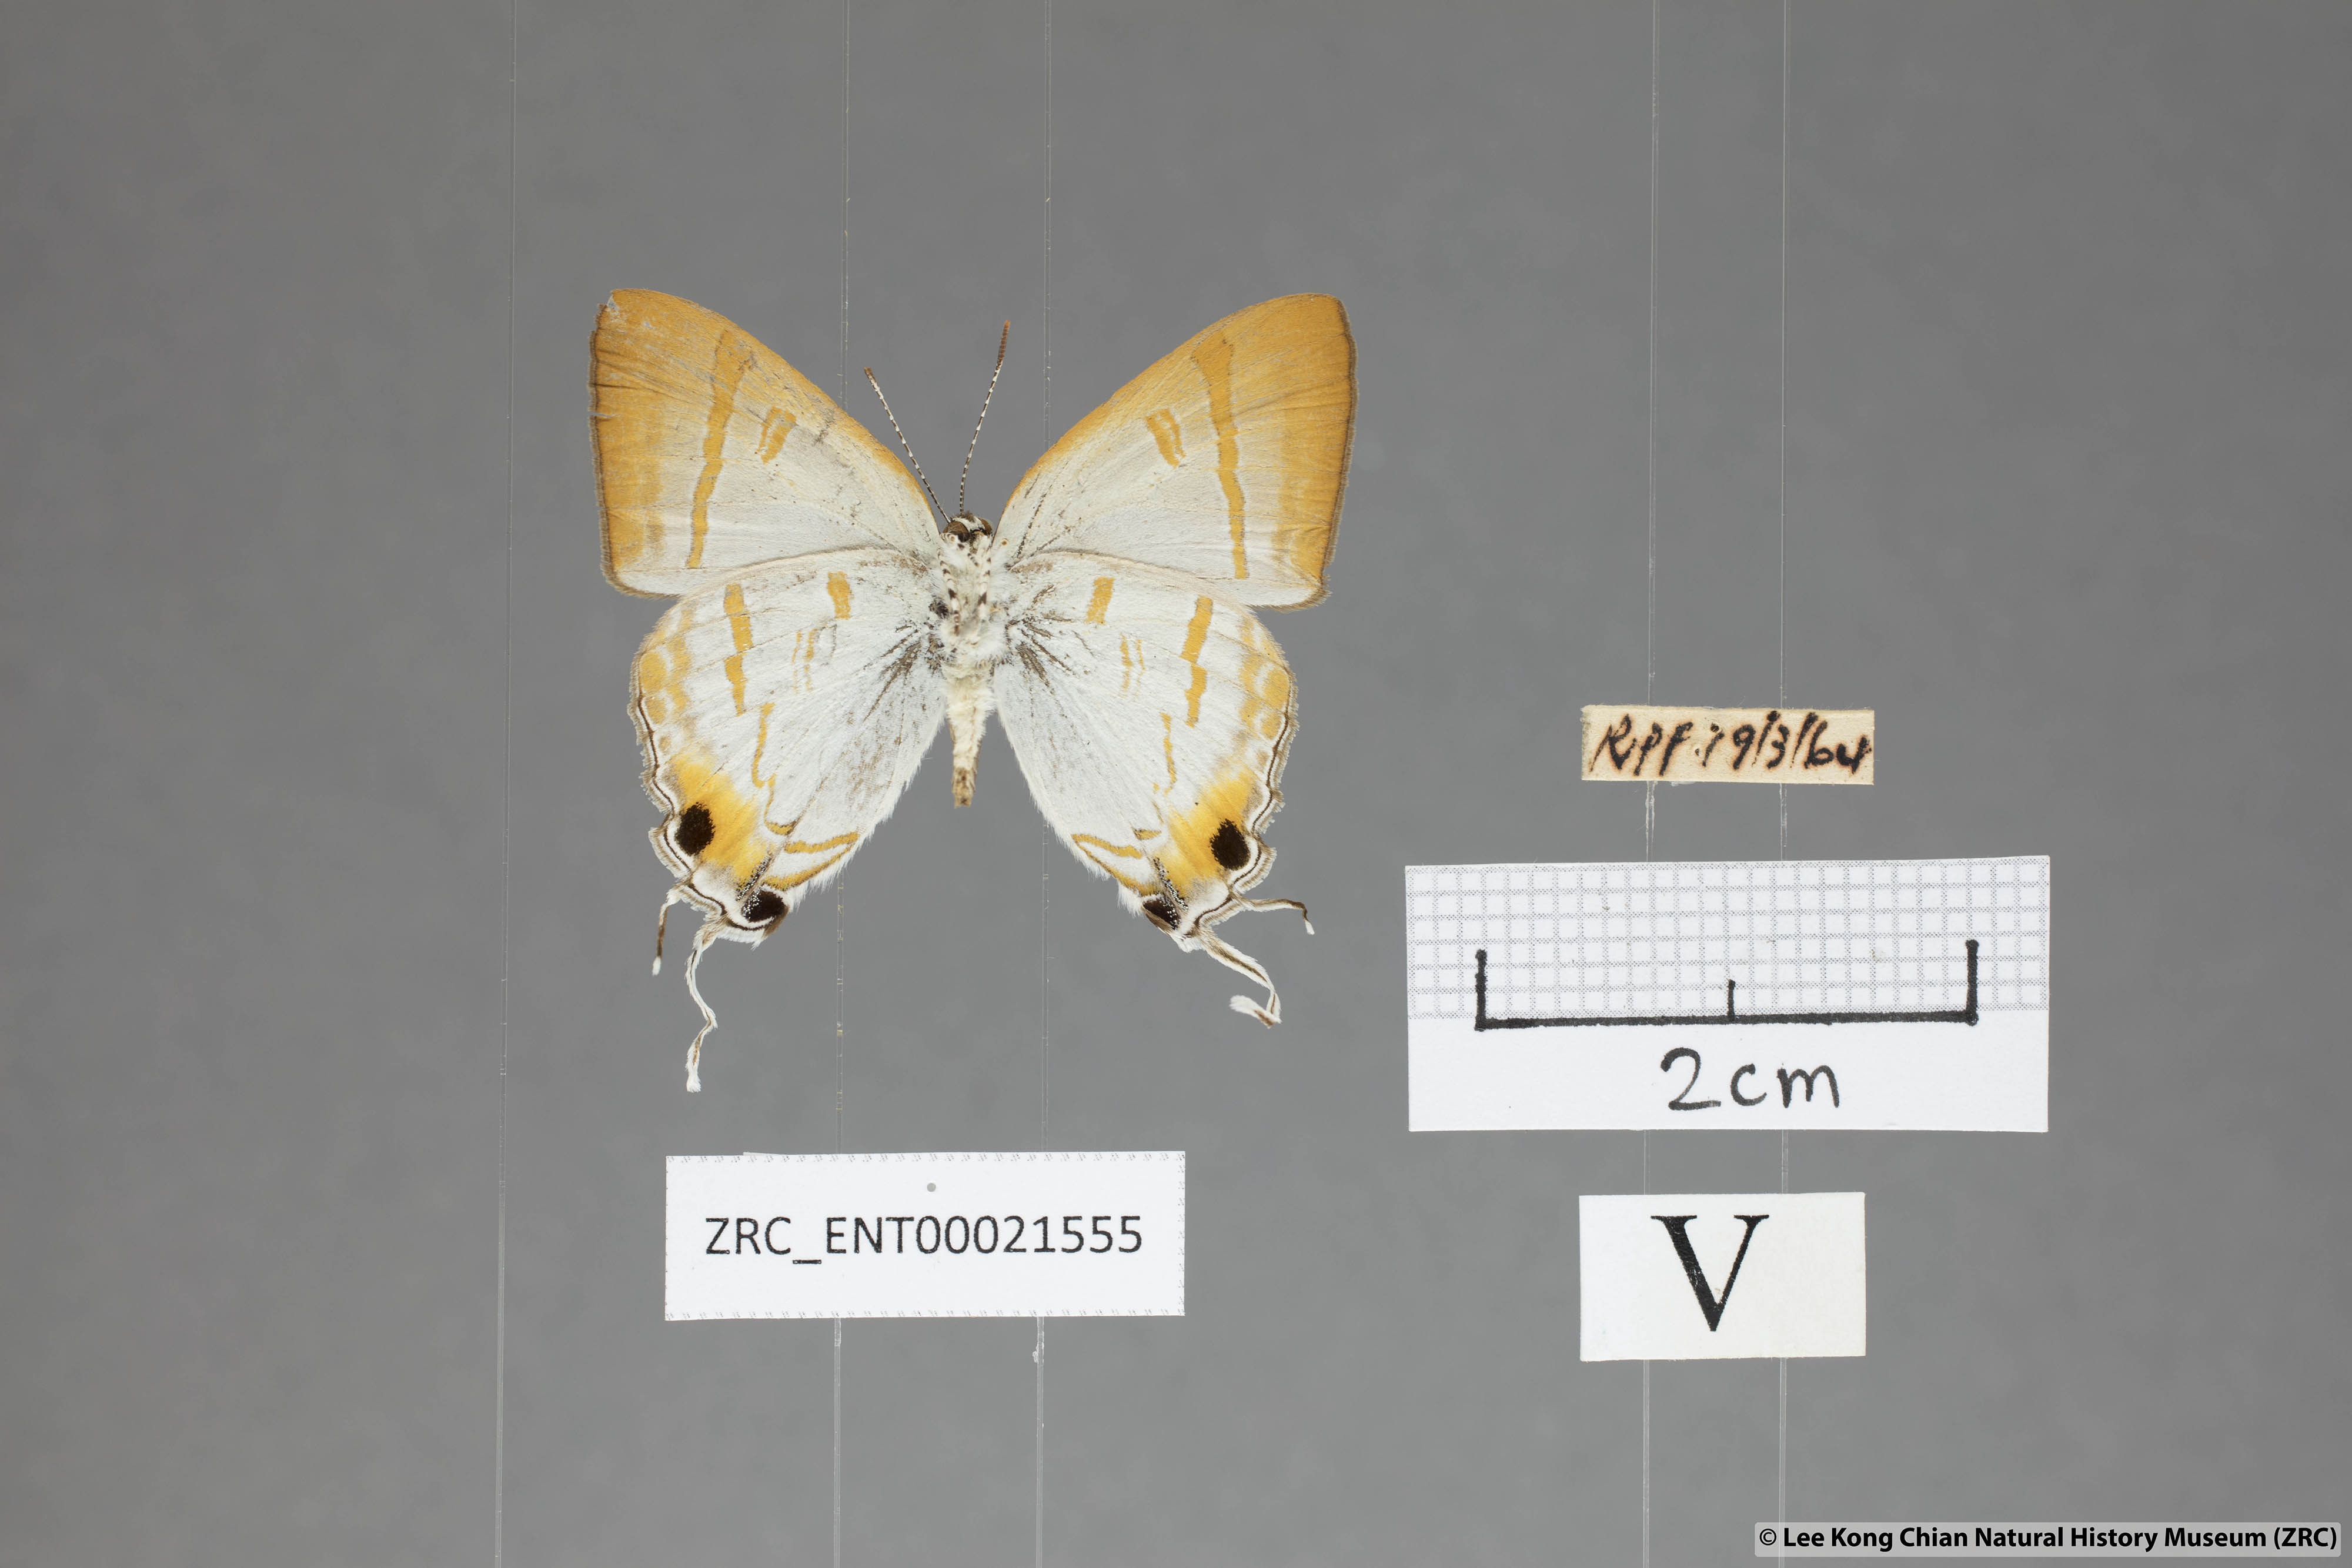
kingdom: Animalia
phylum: Arthropoda
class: Insecta
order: Lepidoptera
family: Lycaenidae
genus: Hypolycaena
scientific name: Hypolycaena thecloides
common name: Dark tit
